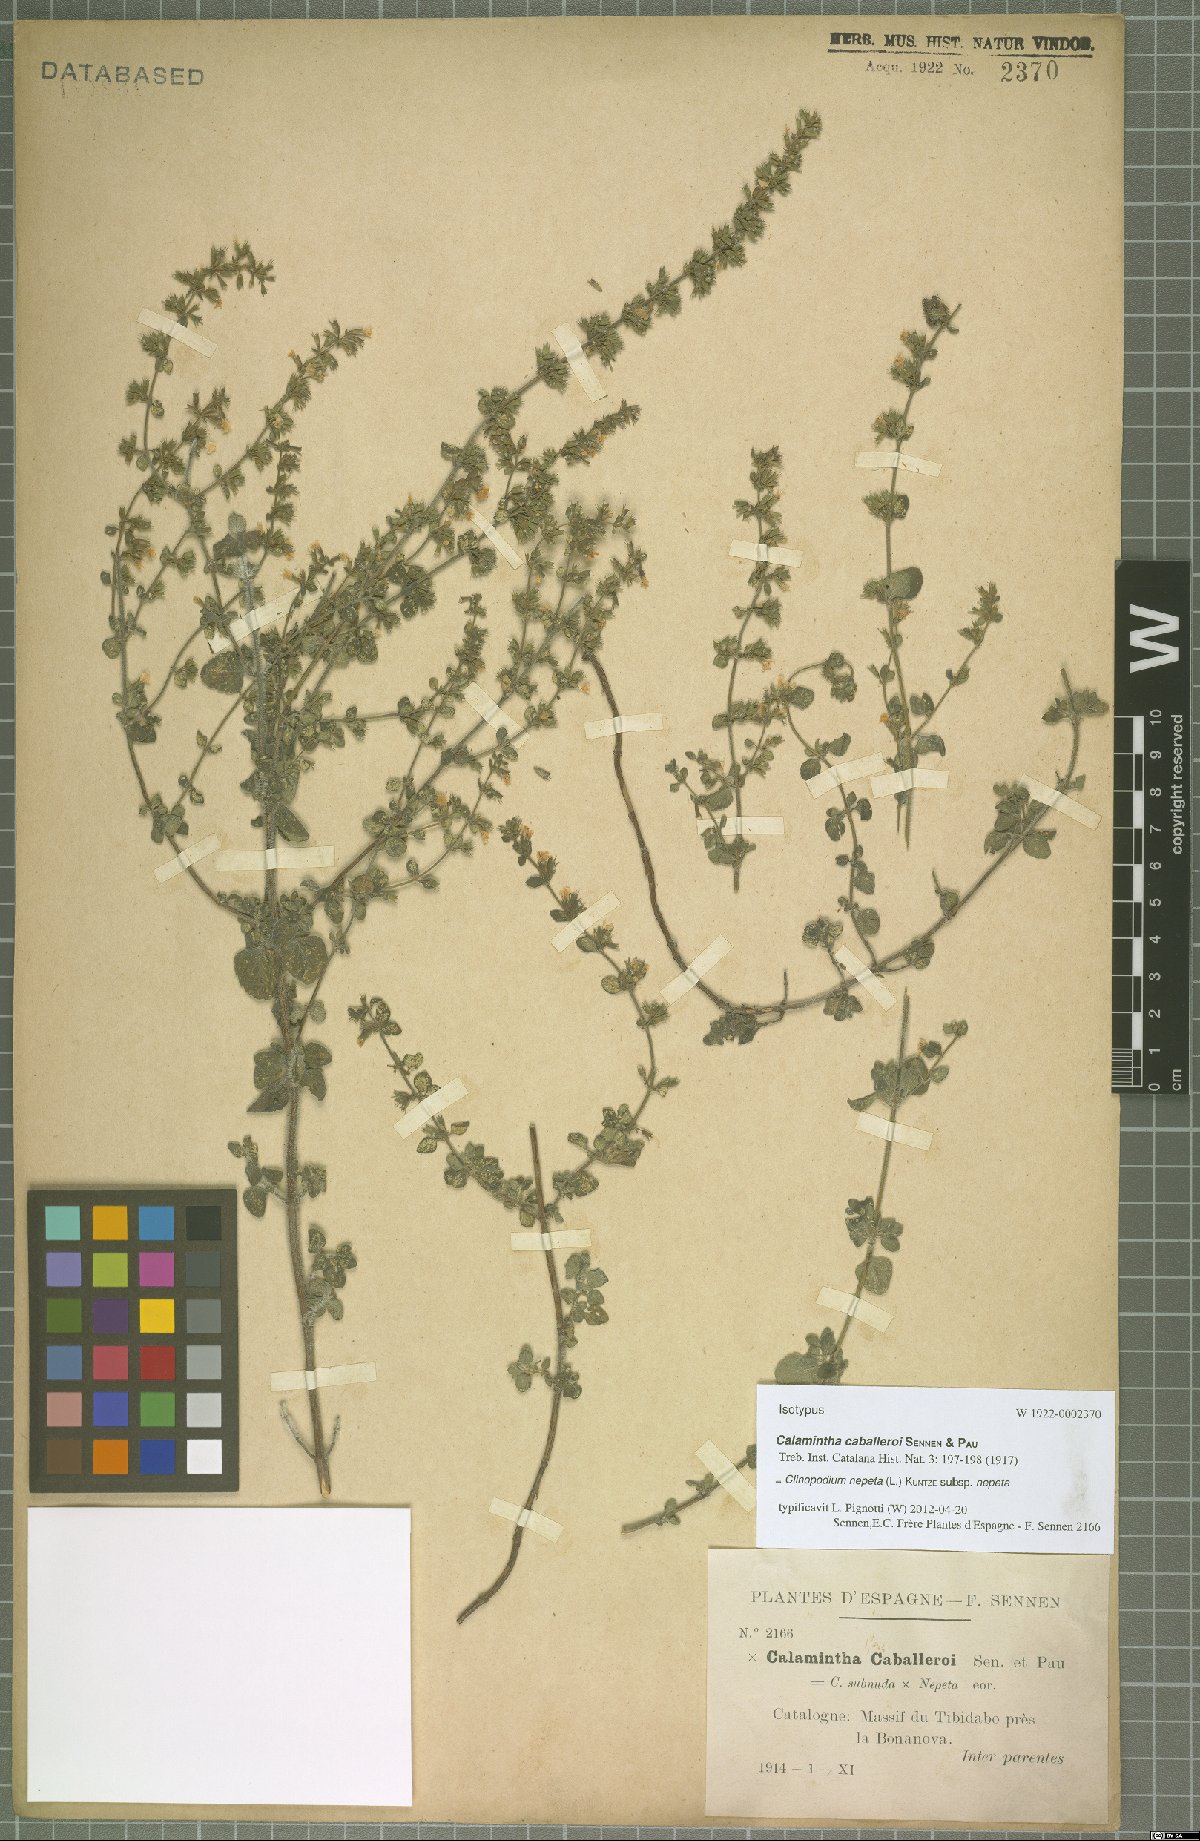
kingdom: Plantae
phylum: Tracheophyta
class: Magnoliopsida
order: Lamiales
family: Lamiaceae
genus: Clinopodium
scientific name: Clinopodium nepeta
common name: Lesser calamint
